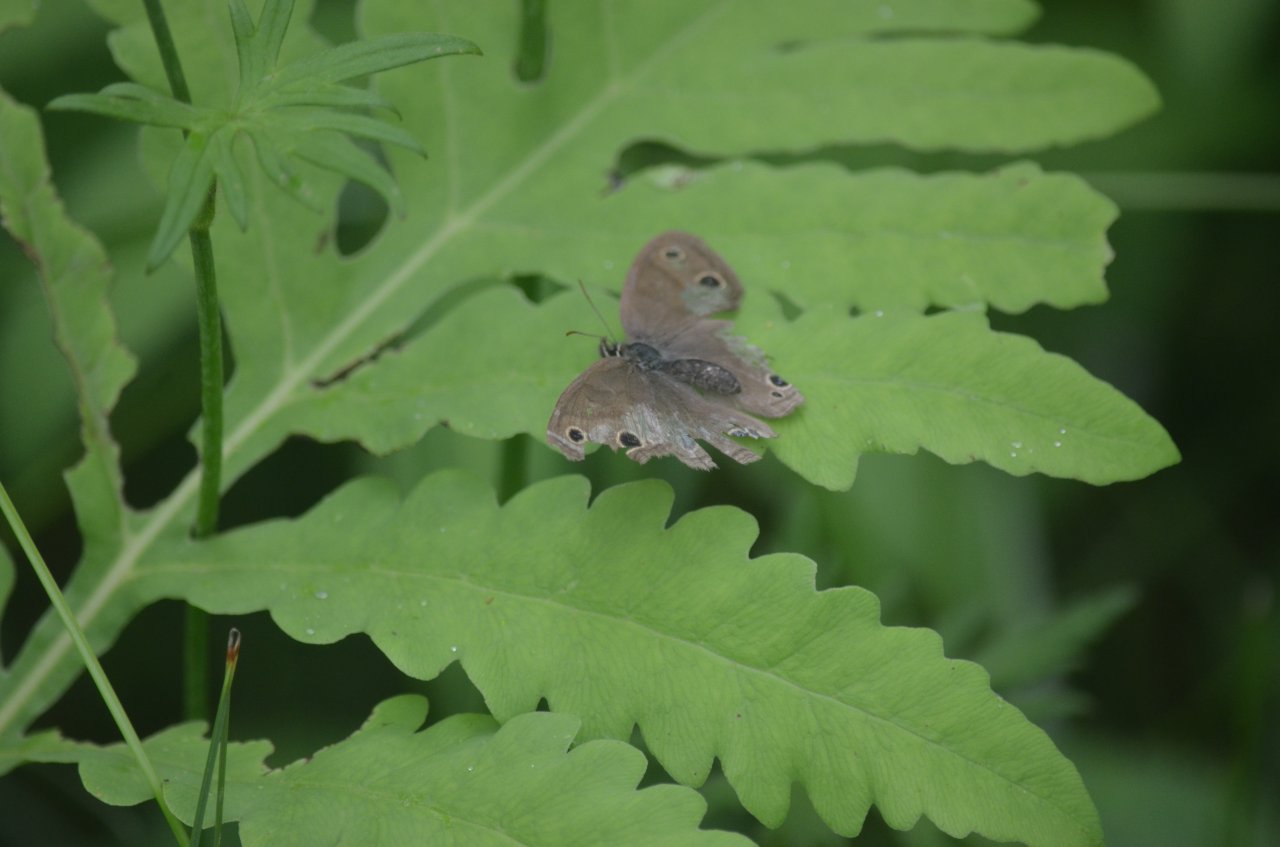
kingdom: Animalia
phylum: Arthropoda
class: Insecta
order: Lepidoptera
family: Nymphalidae
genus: Euptychia
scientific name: Euptychia cymela
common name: Little Wood Satyr
